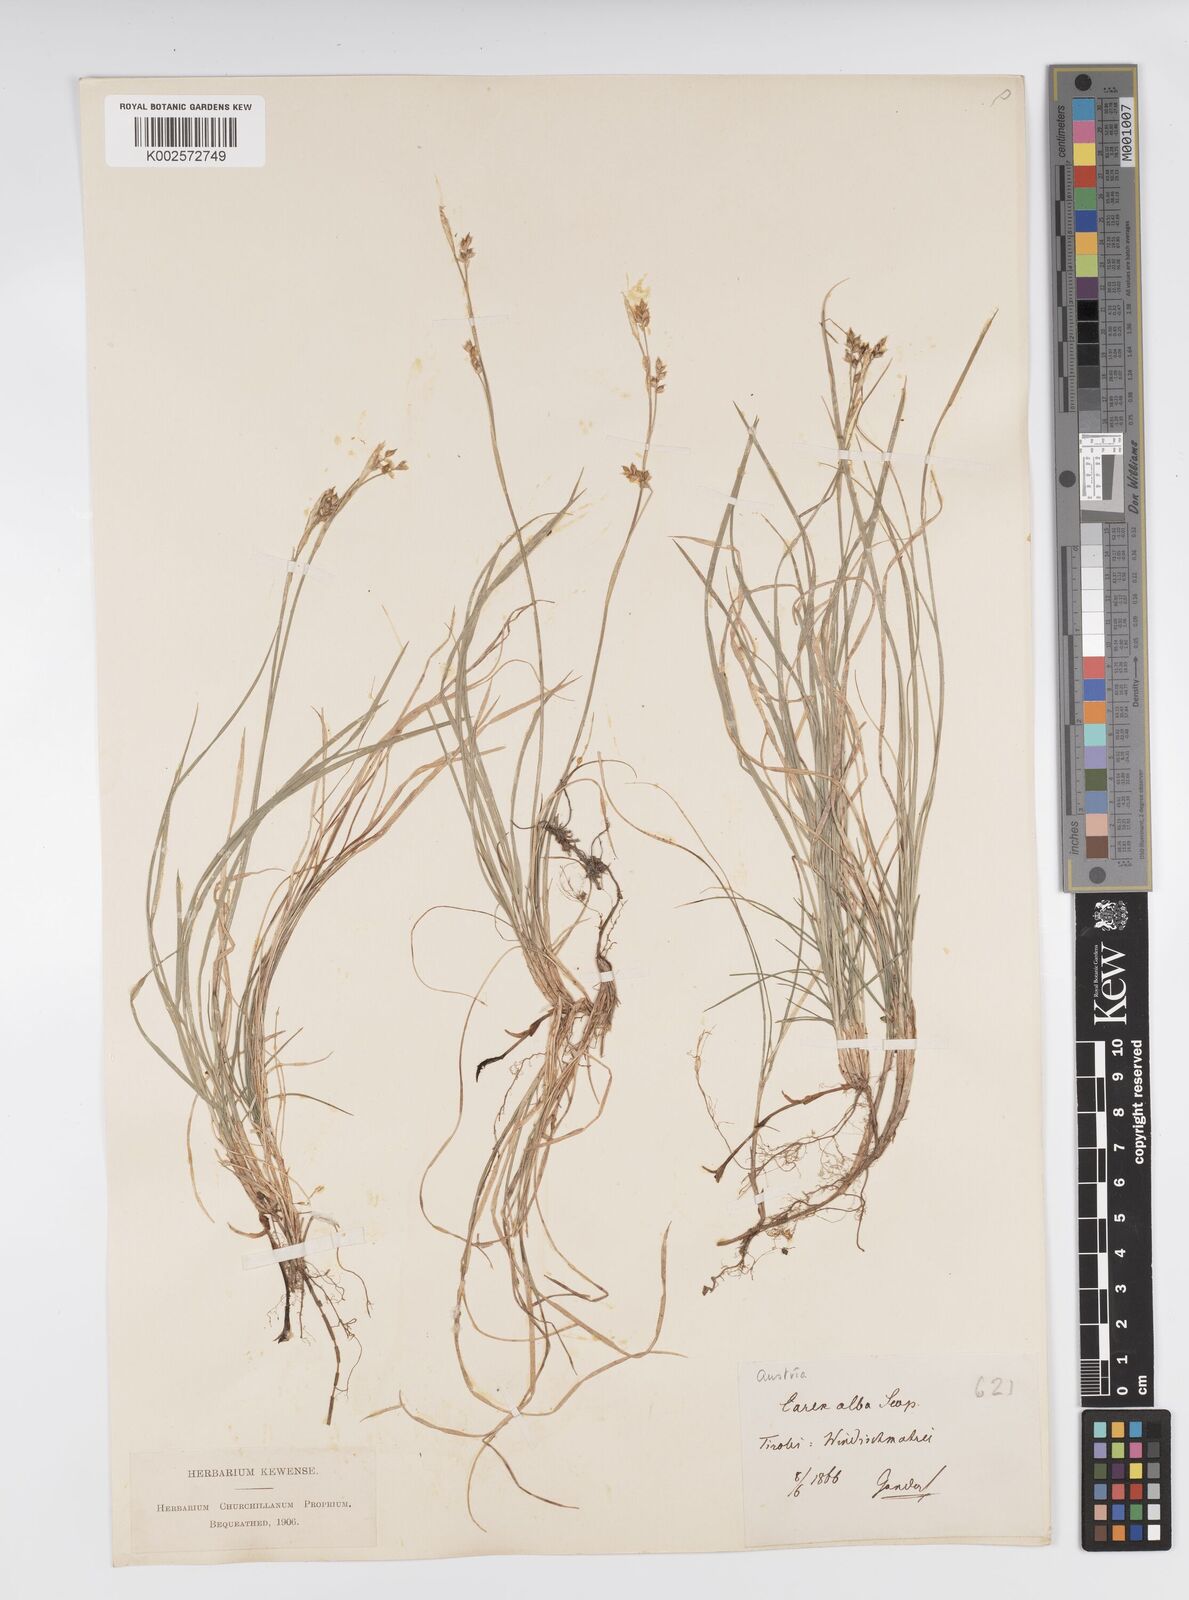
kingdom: Plantae
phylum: Tracheophyta
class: Liliopsida
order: Poales
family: Cyperaceae
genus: Carex
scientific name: Carex alba
